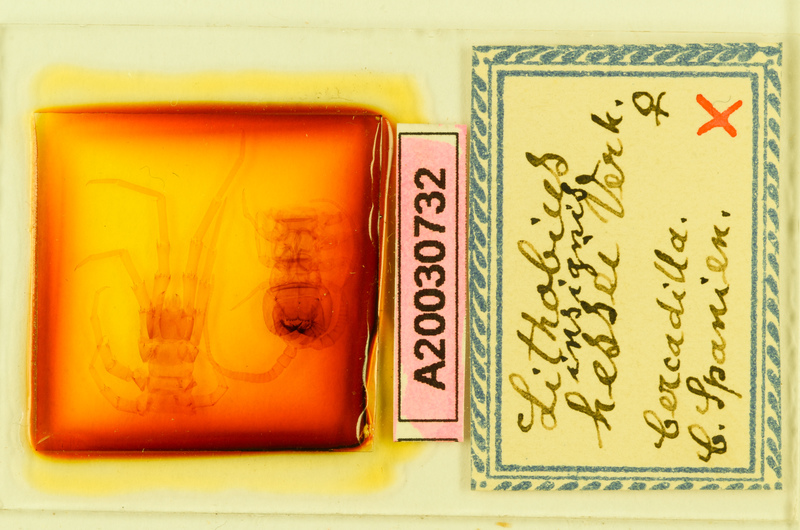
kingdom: Animalia
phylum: Arthropoda
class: Chilopoda
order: Lithobiomorpha
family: Lithobiidae
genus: Lithobius
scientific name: Lithobius variegatus
